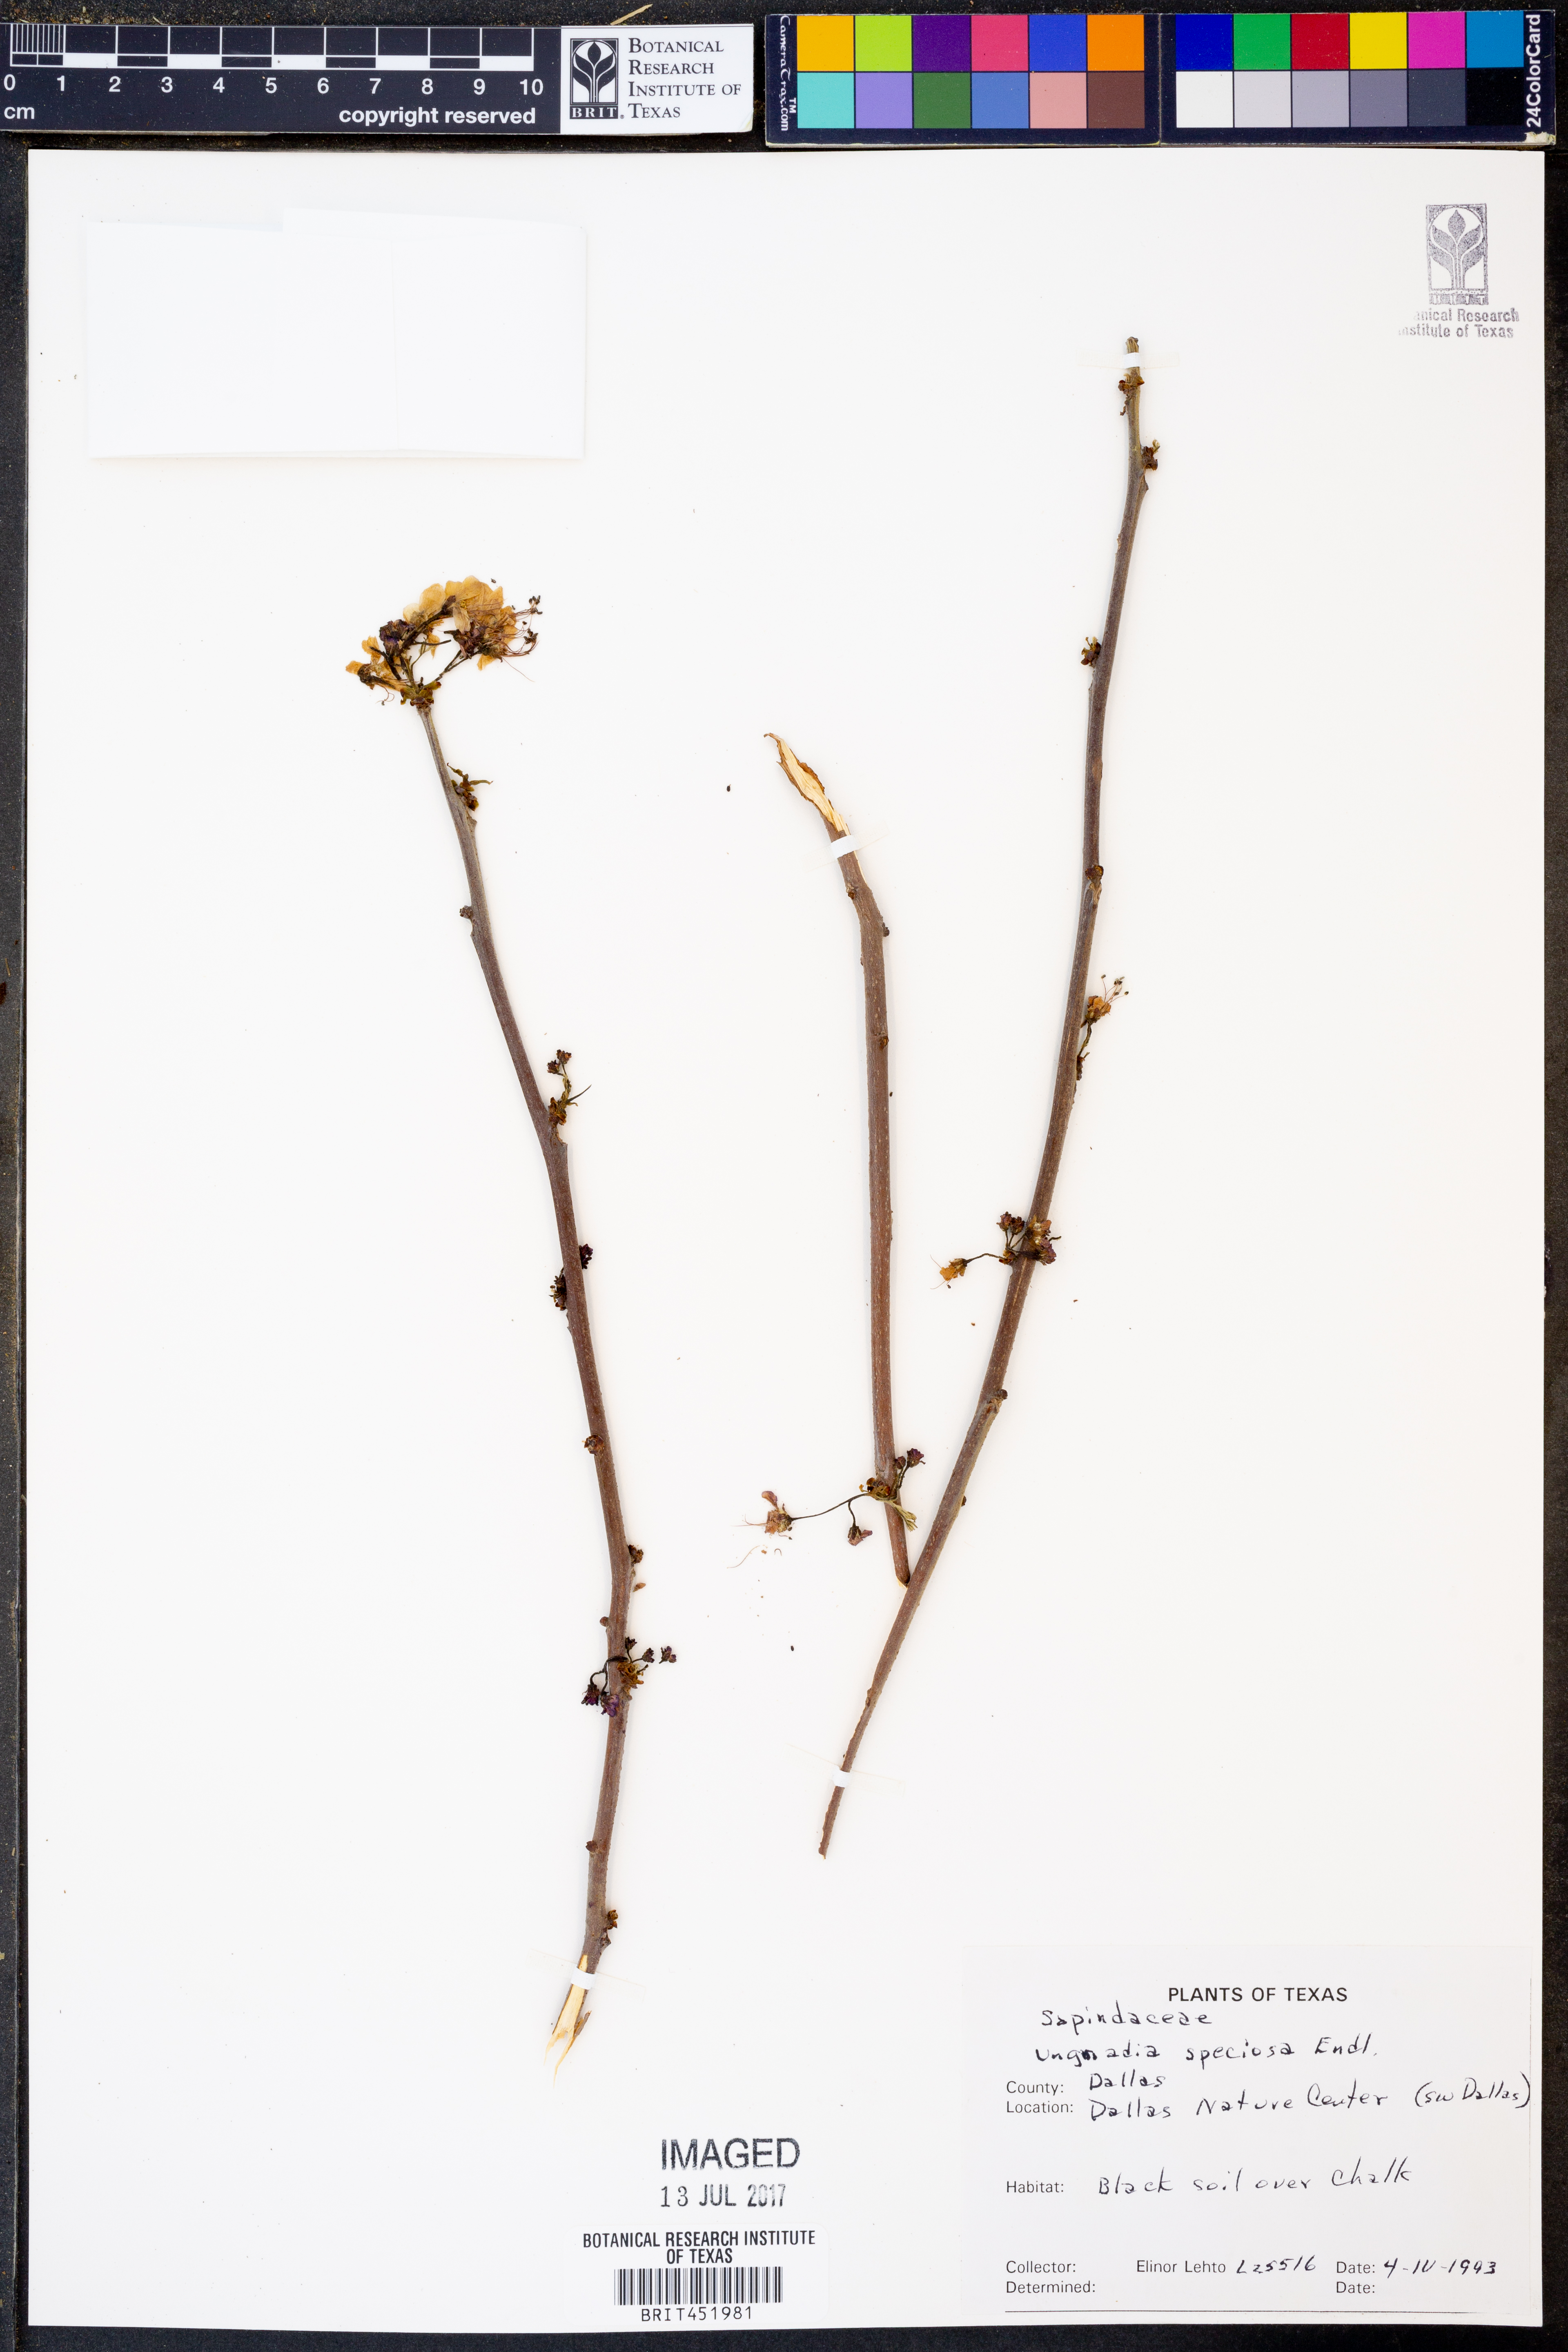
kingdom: Plantae
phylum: Tracheophyta
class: Magnoliopsida
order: Sapindales
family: Sapindaceae
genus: Ungnadia
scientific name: Ungnadia speciosa
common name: Texas-buckeye
